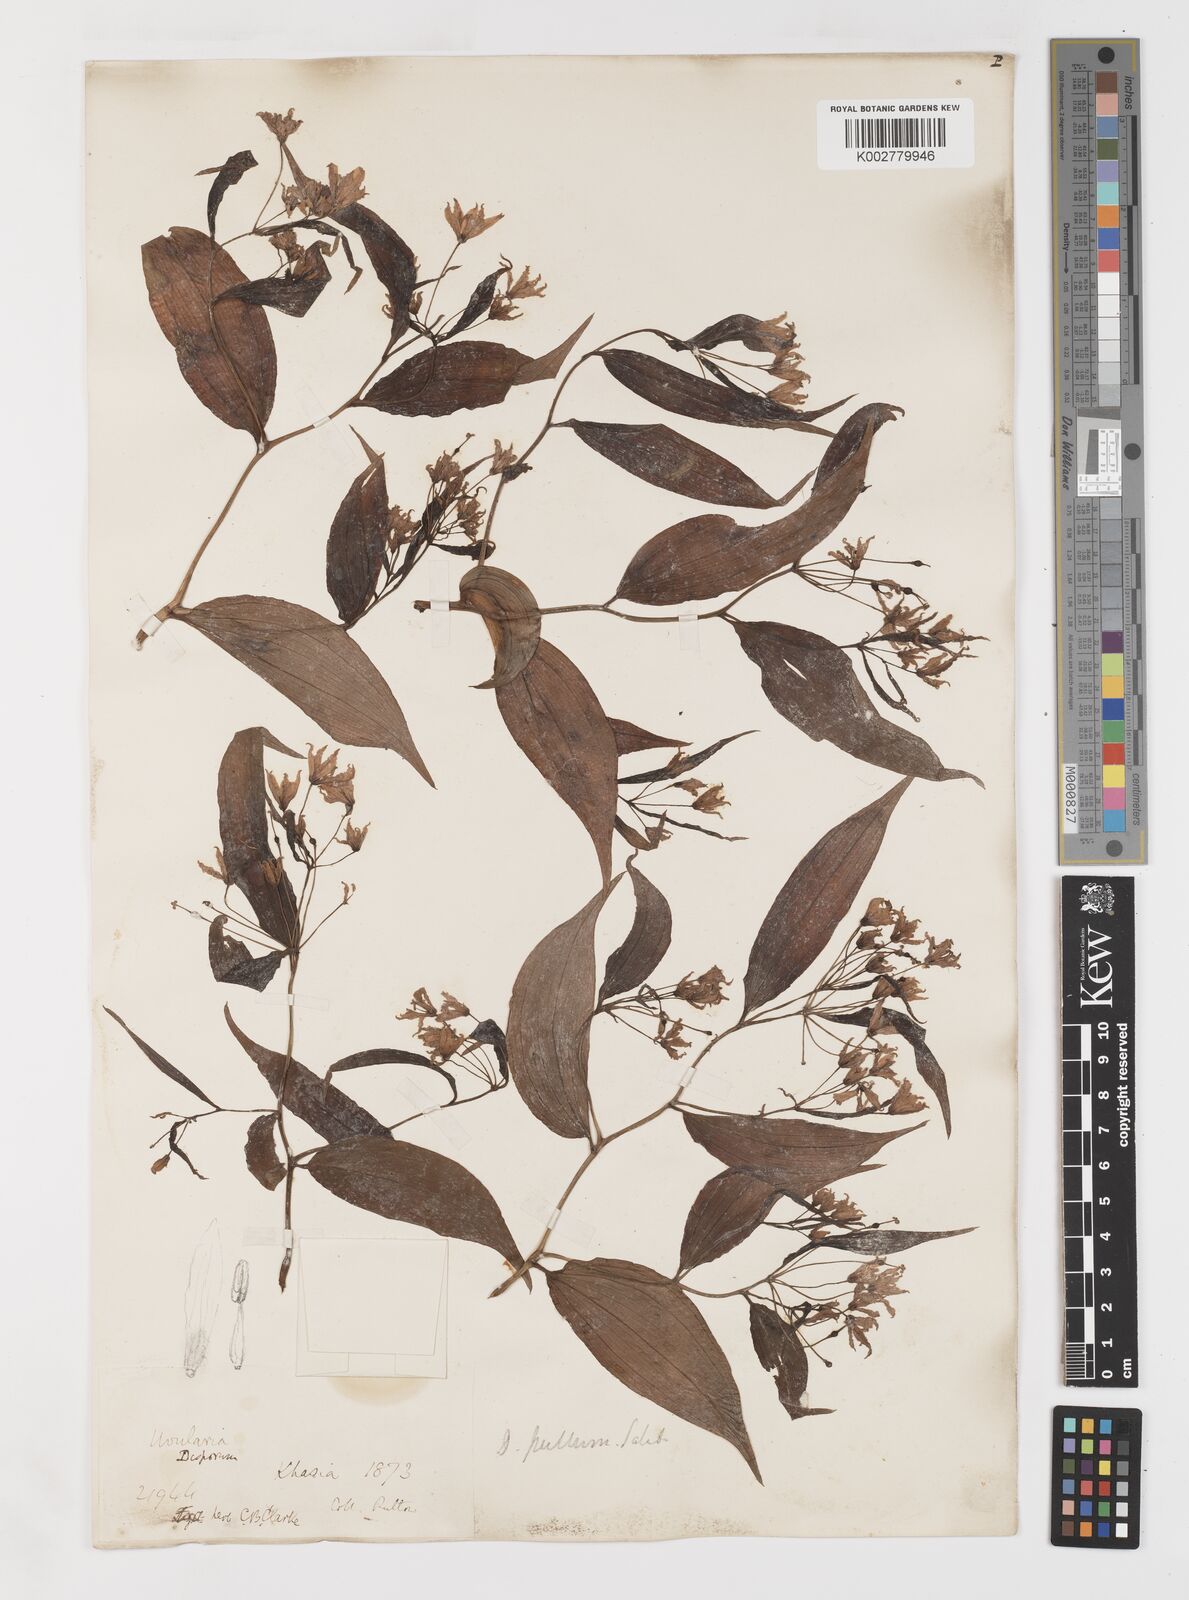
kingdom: Plantae
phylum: Tracheophyta
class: Liliopsida
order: Liliales
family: Colchicaceae
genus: Disporum
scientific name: Disporum cantoniense
